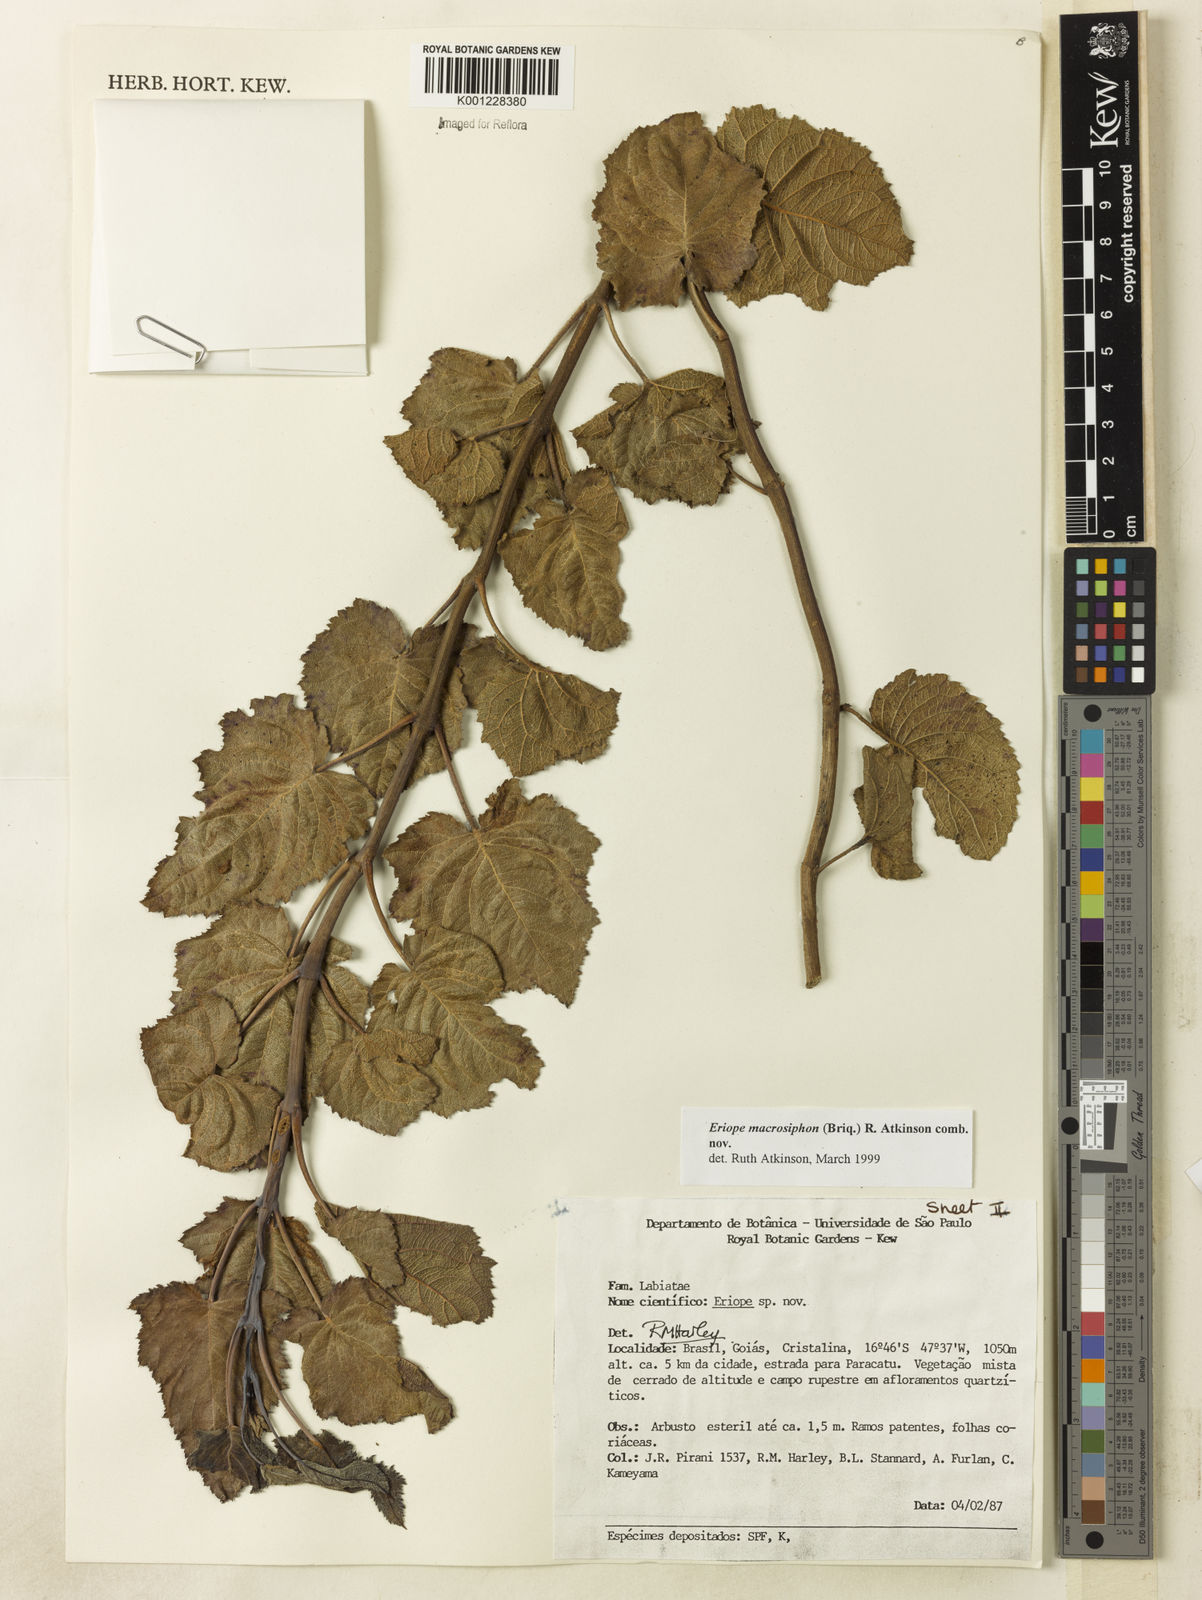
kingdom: Plantae
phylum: Tracheophyta
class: Magnoliopsida
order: Lamiales
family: Lamiaceae
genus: Hypenia
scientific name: Hypenia macrosiphon
